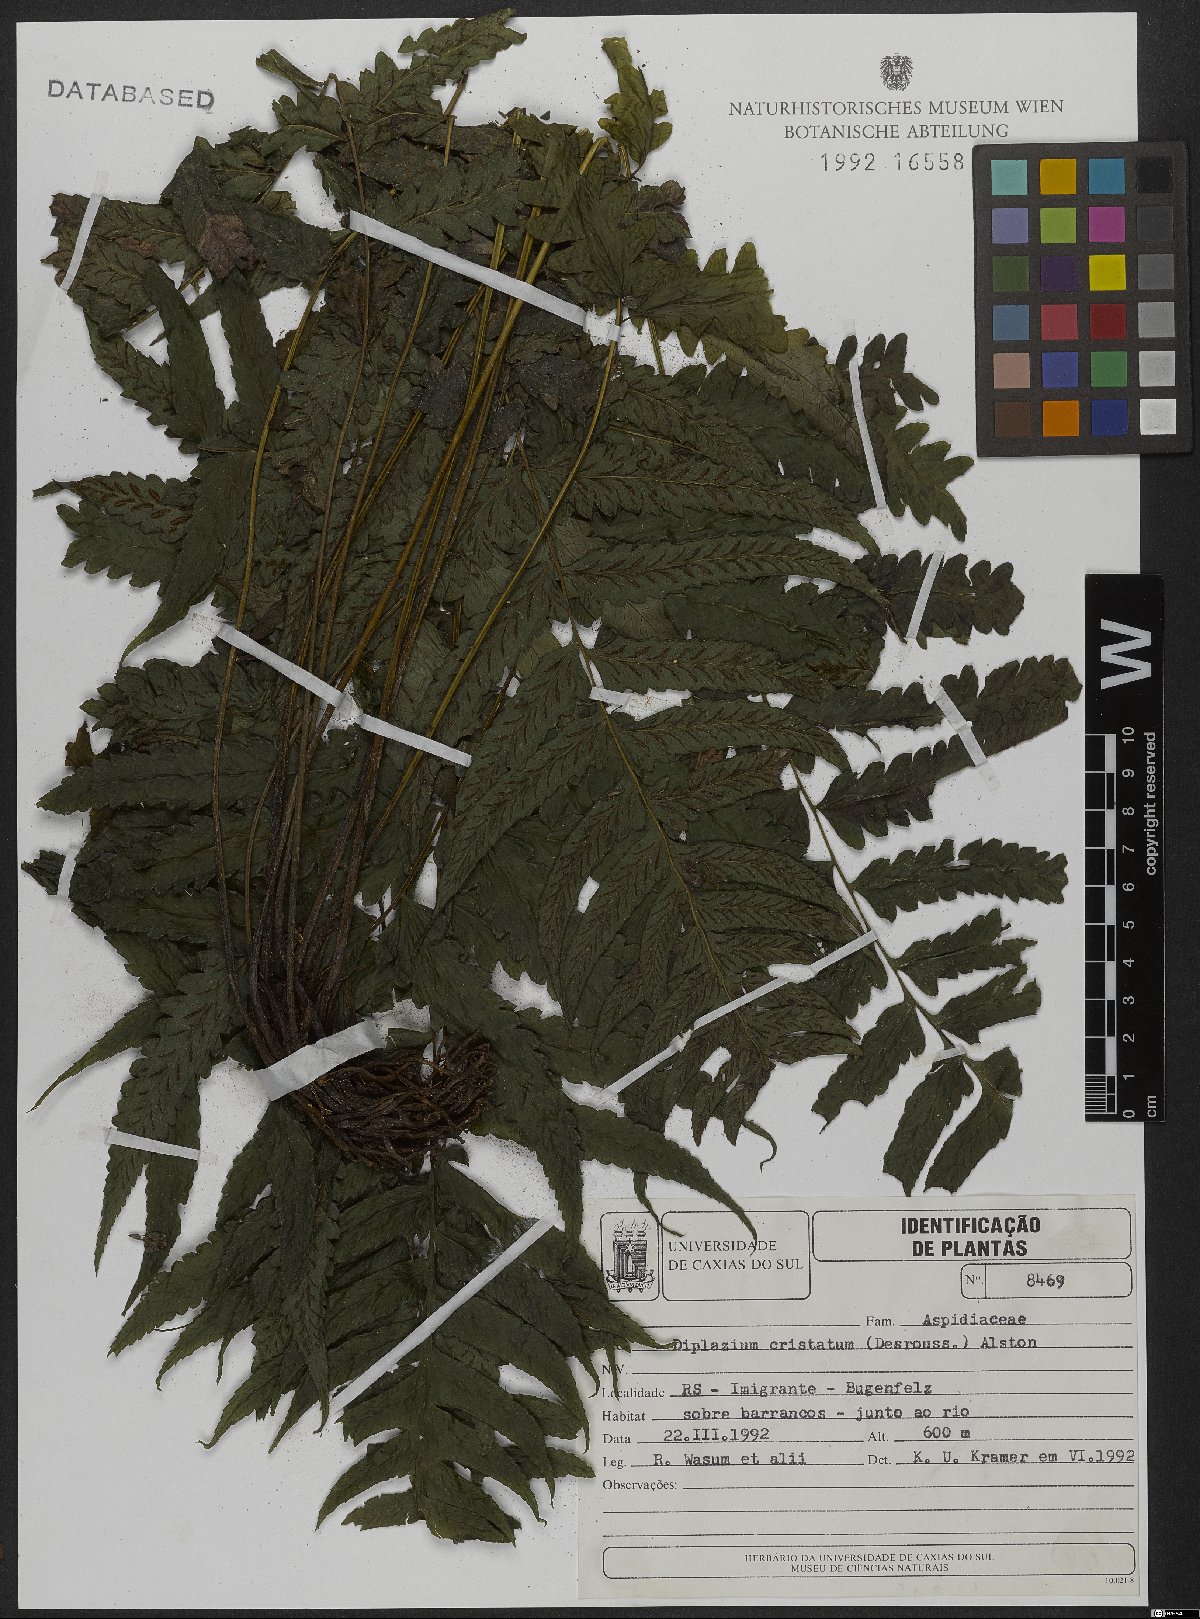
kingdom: Plantae
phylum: Tracheophyta
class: Polypodiopsida
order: Polypodiales
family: Athyriaceae
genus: Diplazium
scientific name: Diplazium cristatum
